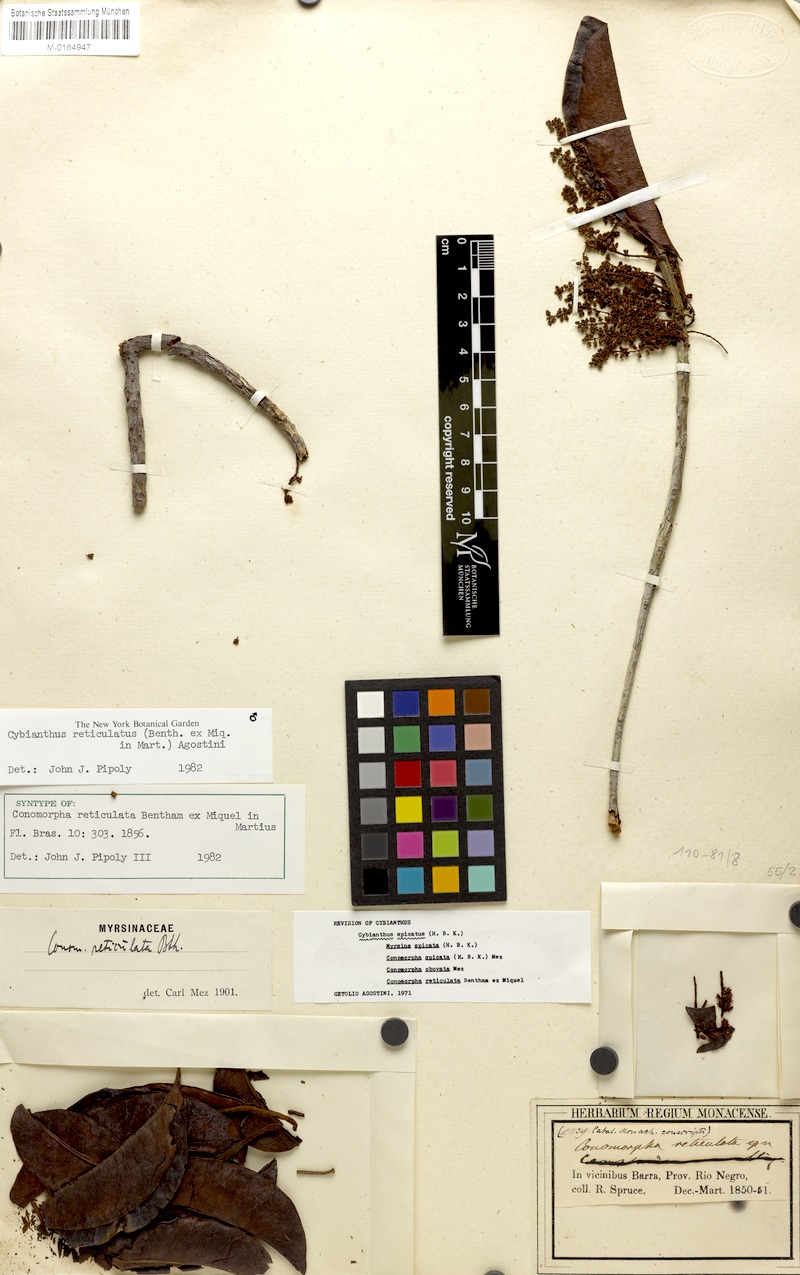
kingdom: Plantae
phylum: Tracheophyta
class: Magnoliopsida
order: Ericales
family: Primulaceae
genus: Cybianthus
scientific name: Cybianthus reticulatus
